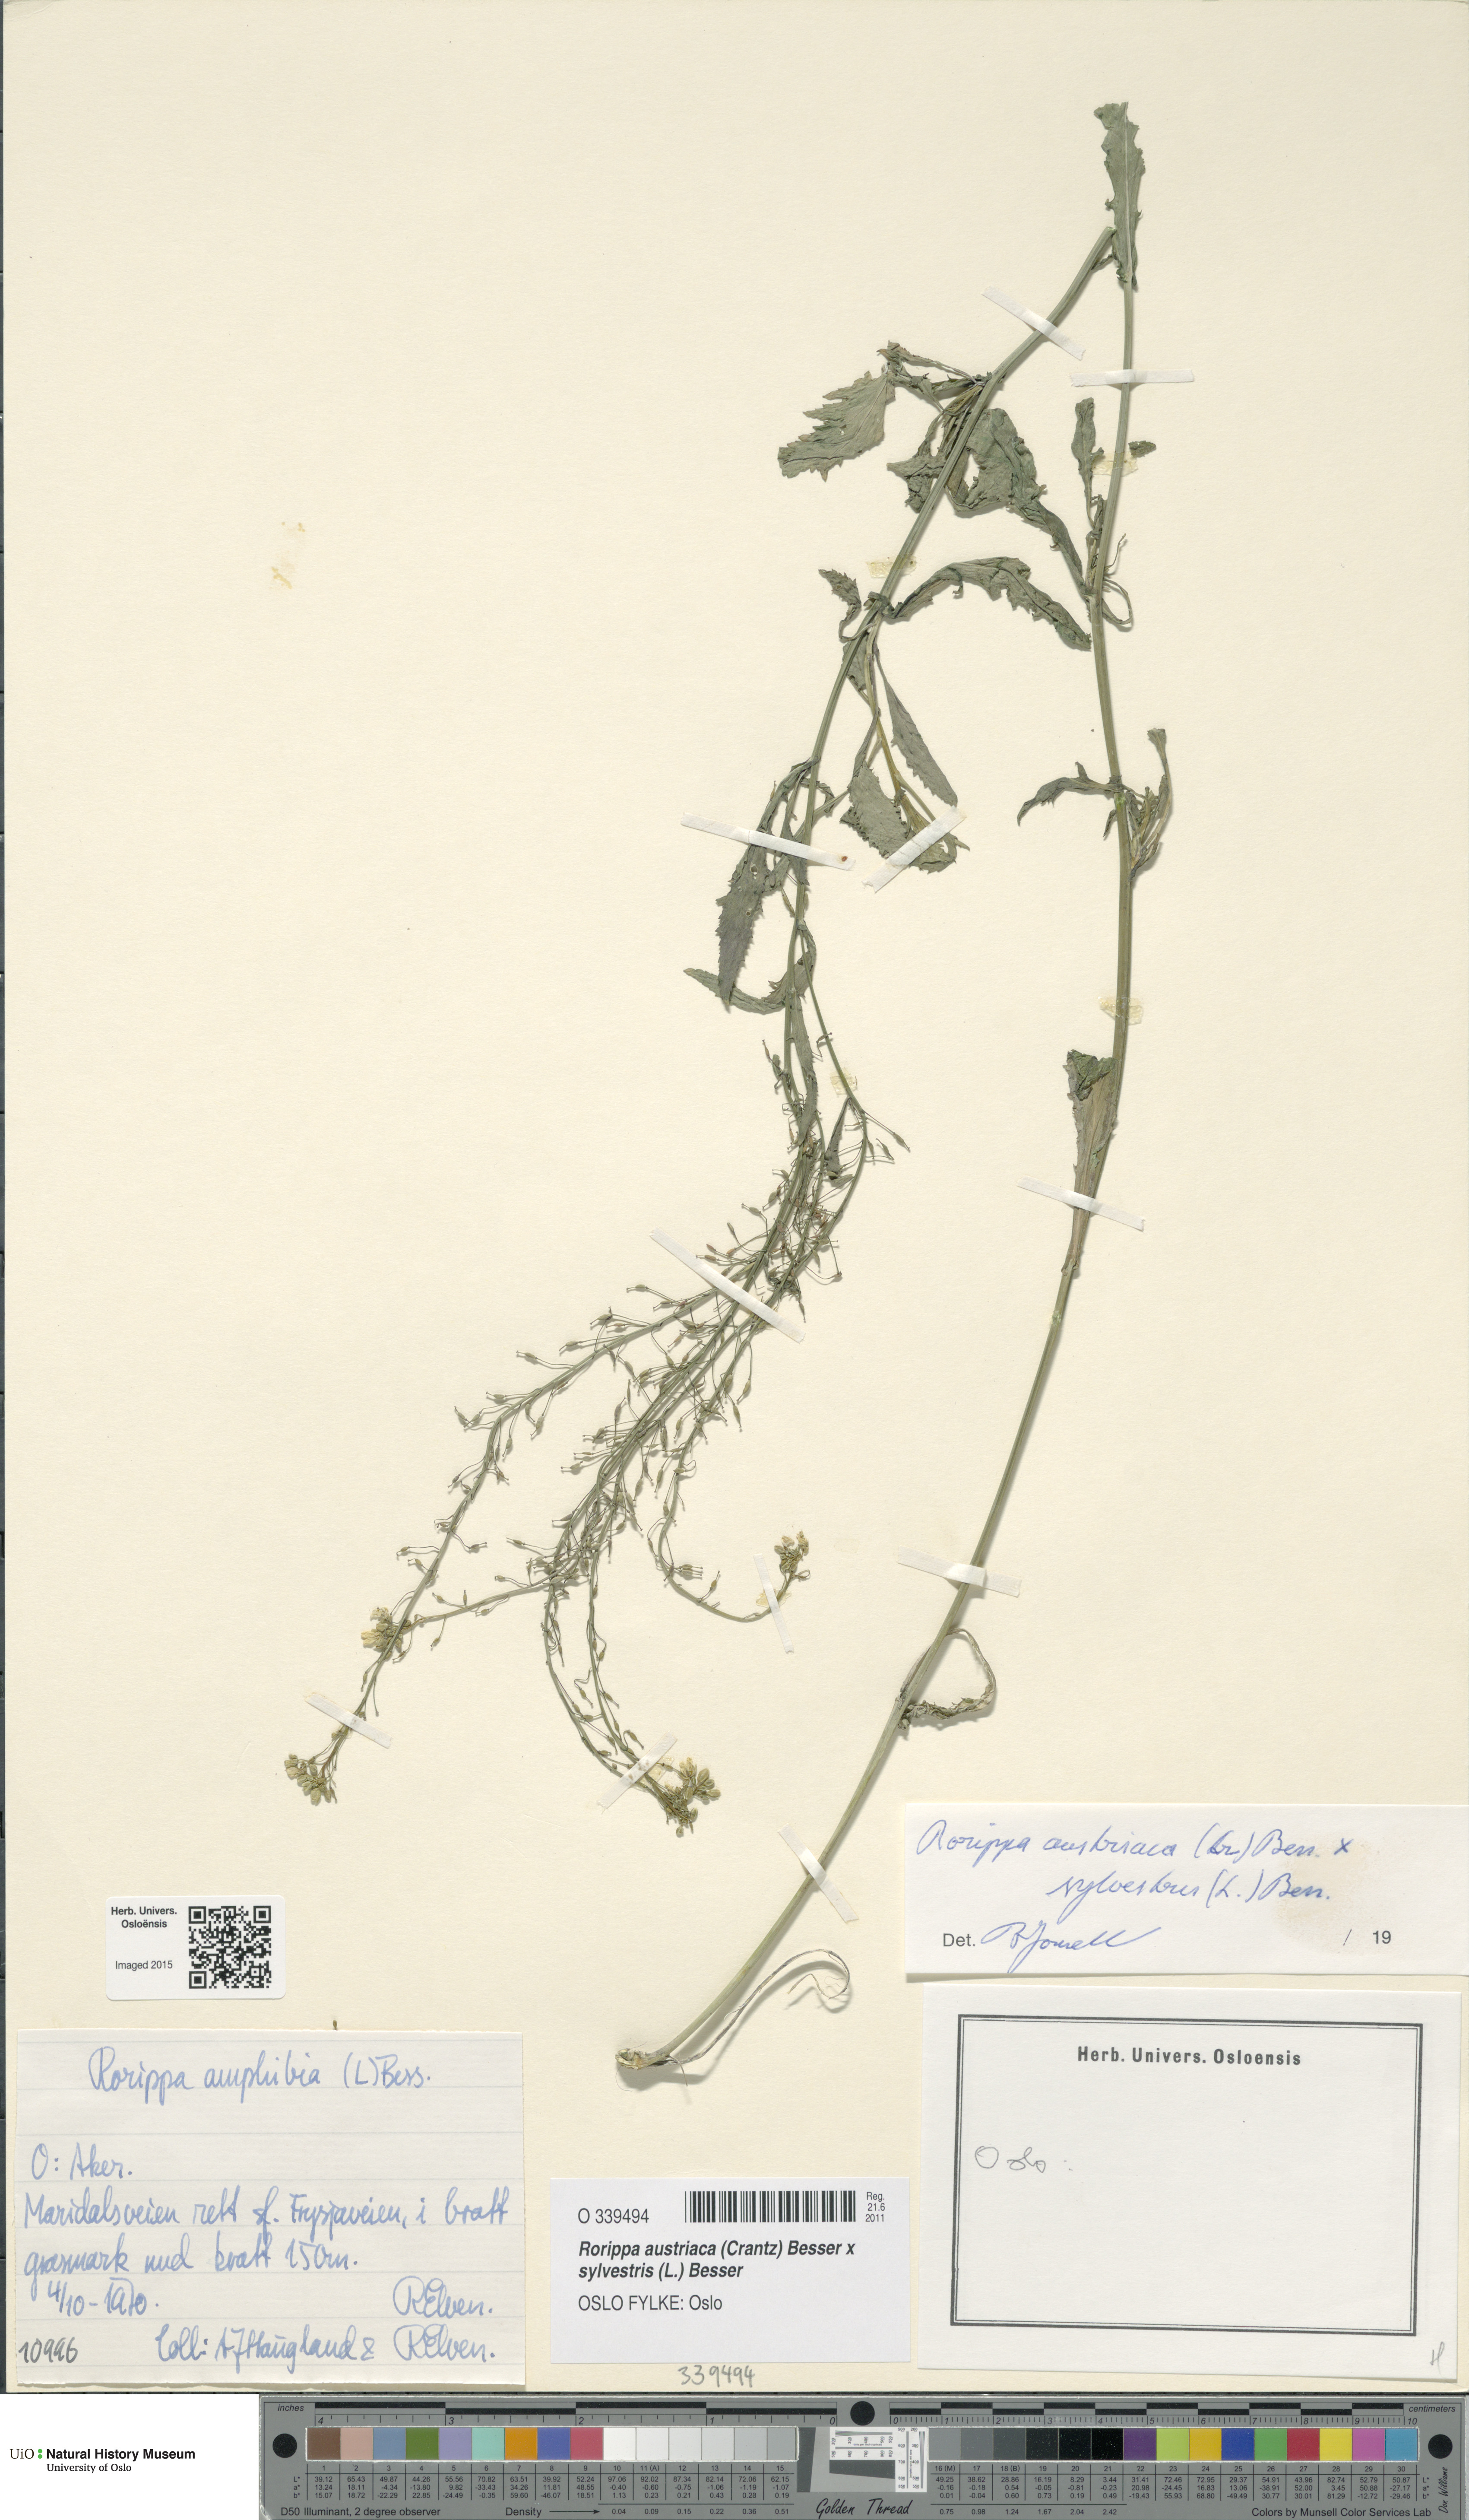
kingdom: Plantae
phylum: Tracheophyta
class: Magnoliopsida
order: Brassicales
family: Brassicaceae
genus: Rorippa
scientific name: Rorippa
